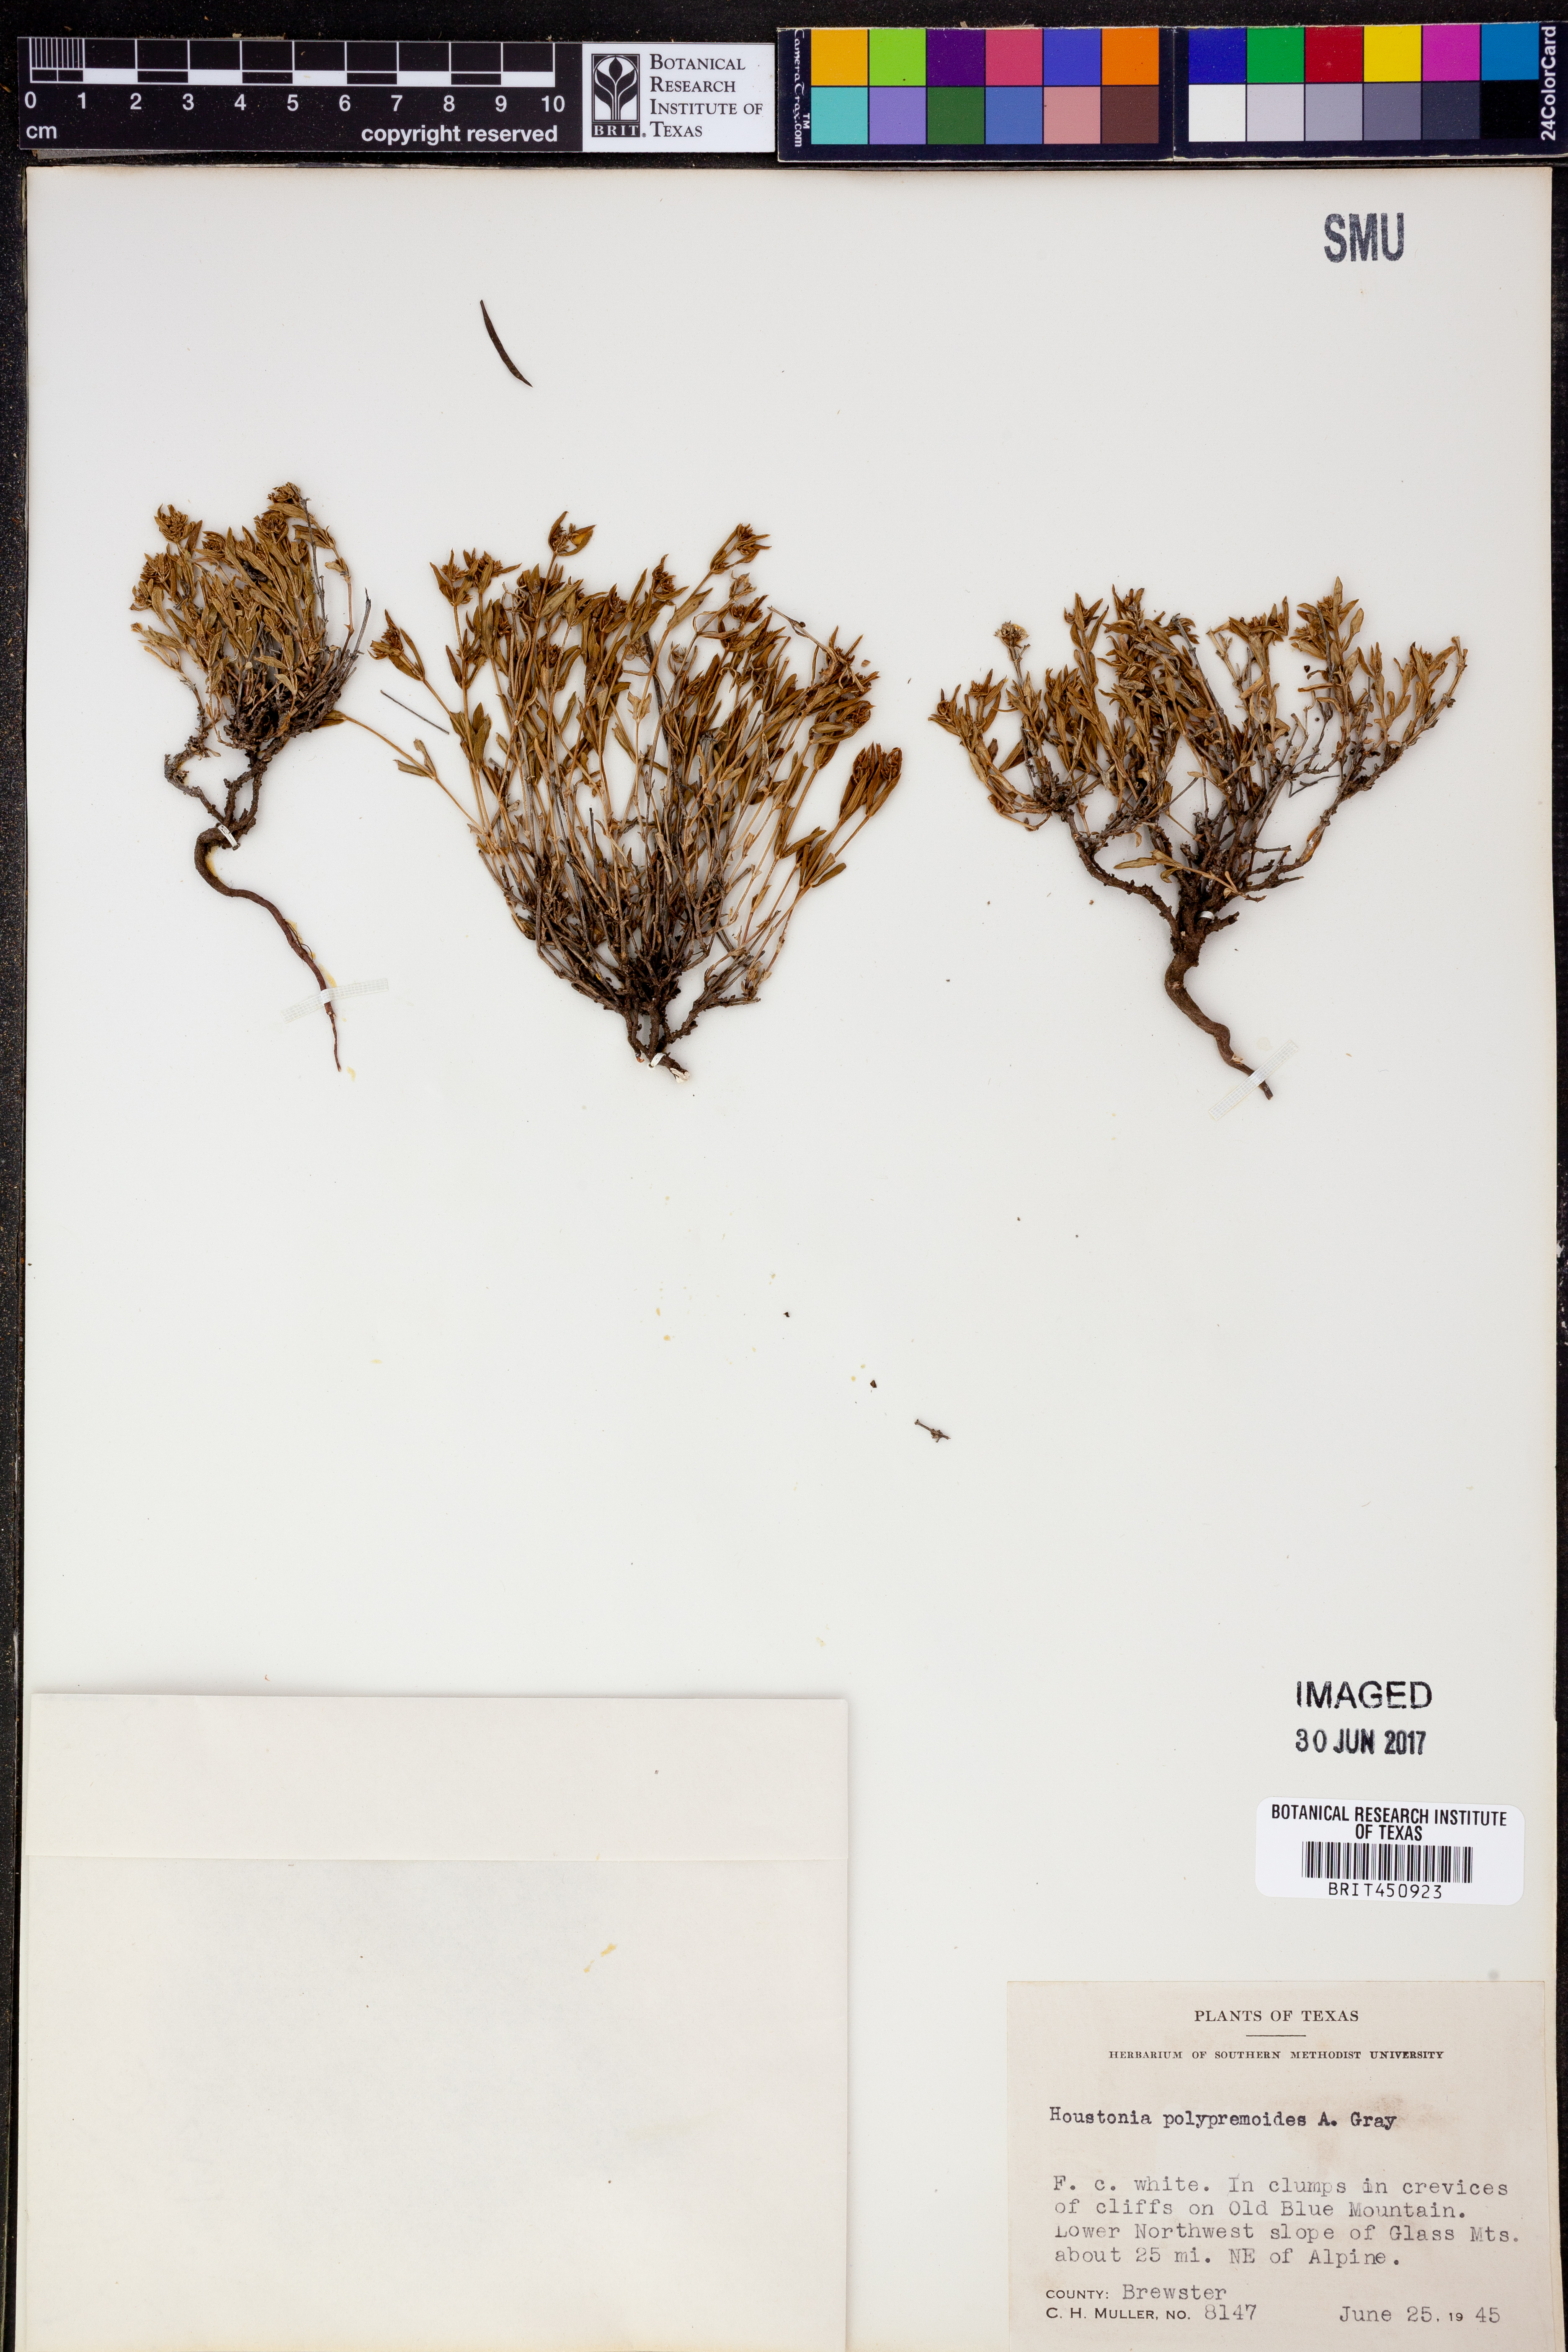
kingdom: Plantae
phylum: Tracheophyta
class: Magnoliopsida
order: Gentianales
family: Rubiaceae
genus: Houstonia
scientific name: Houstonia acerosa
